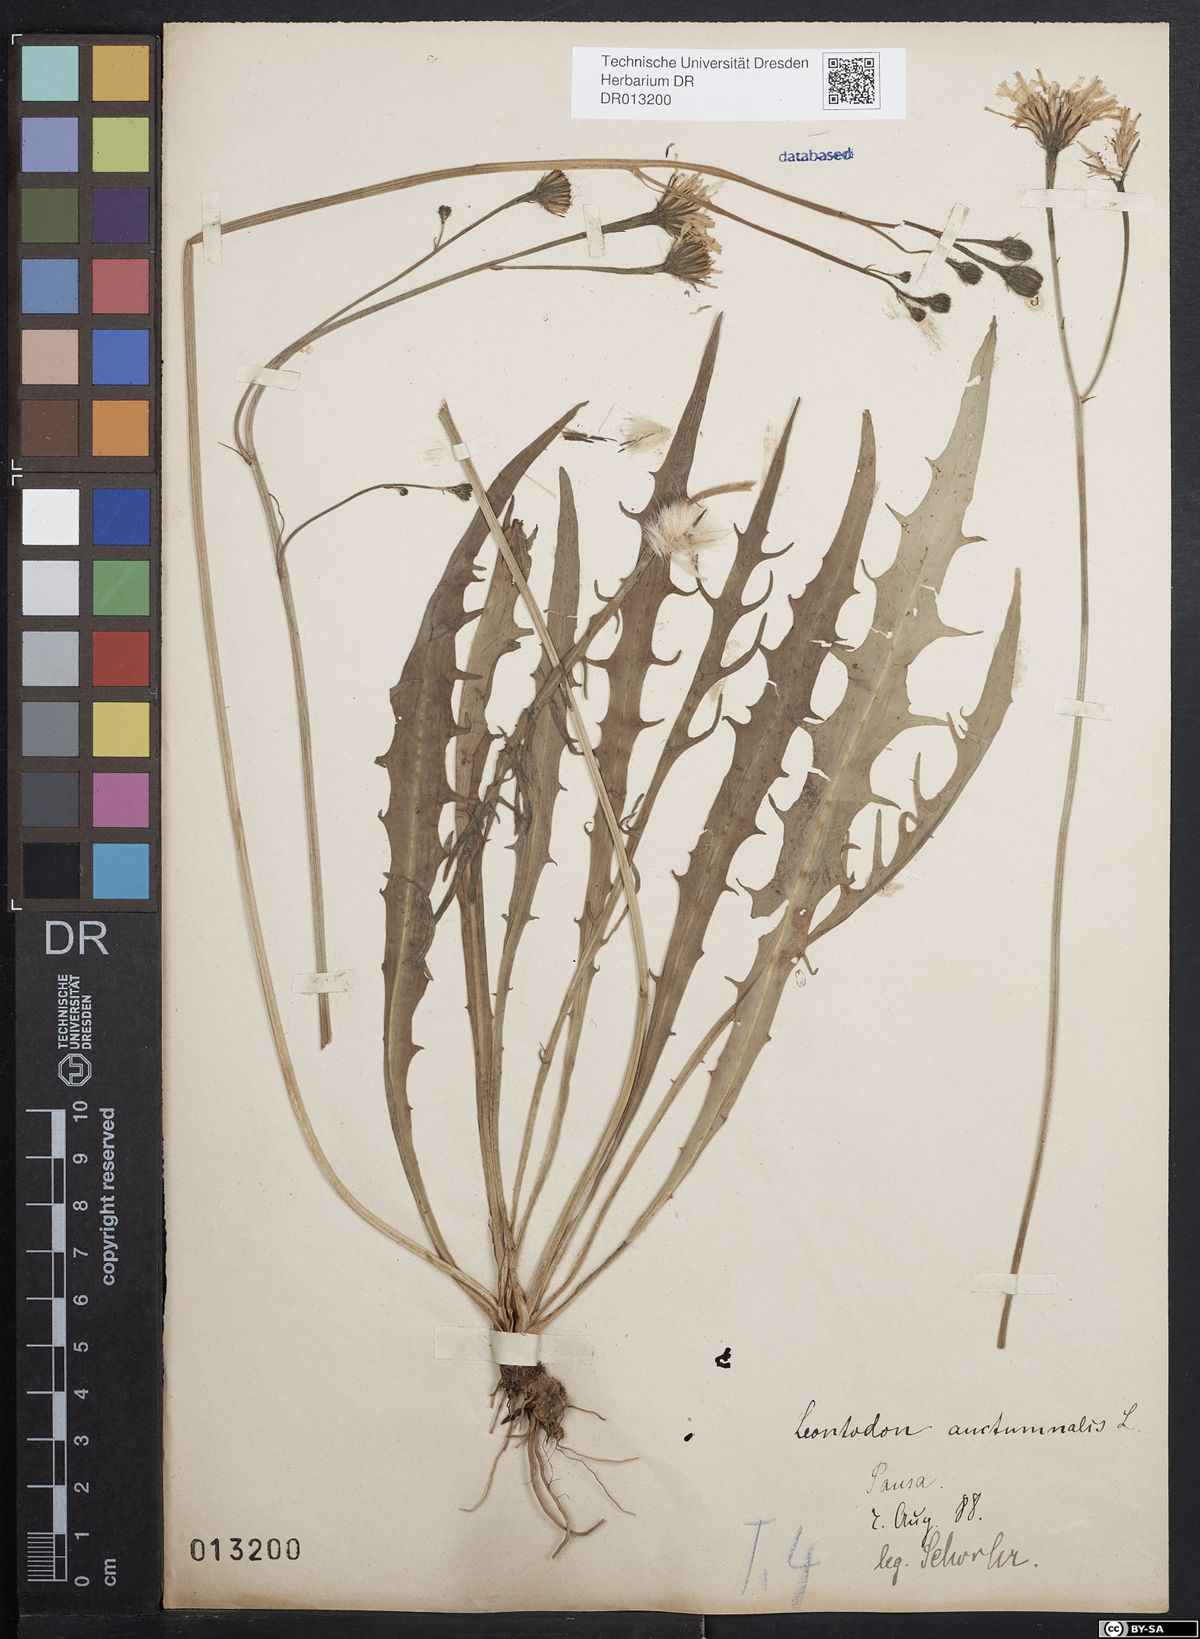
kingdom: Plantae
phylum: Tracheophyta
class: Magnoliopsida
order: Asterales
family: Asteraceae
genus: Scorzoneroides
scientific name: Scorzoneroides autumnalis
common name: Autumn hawkbit
